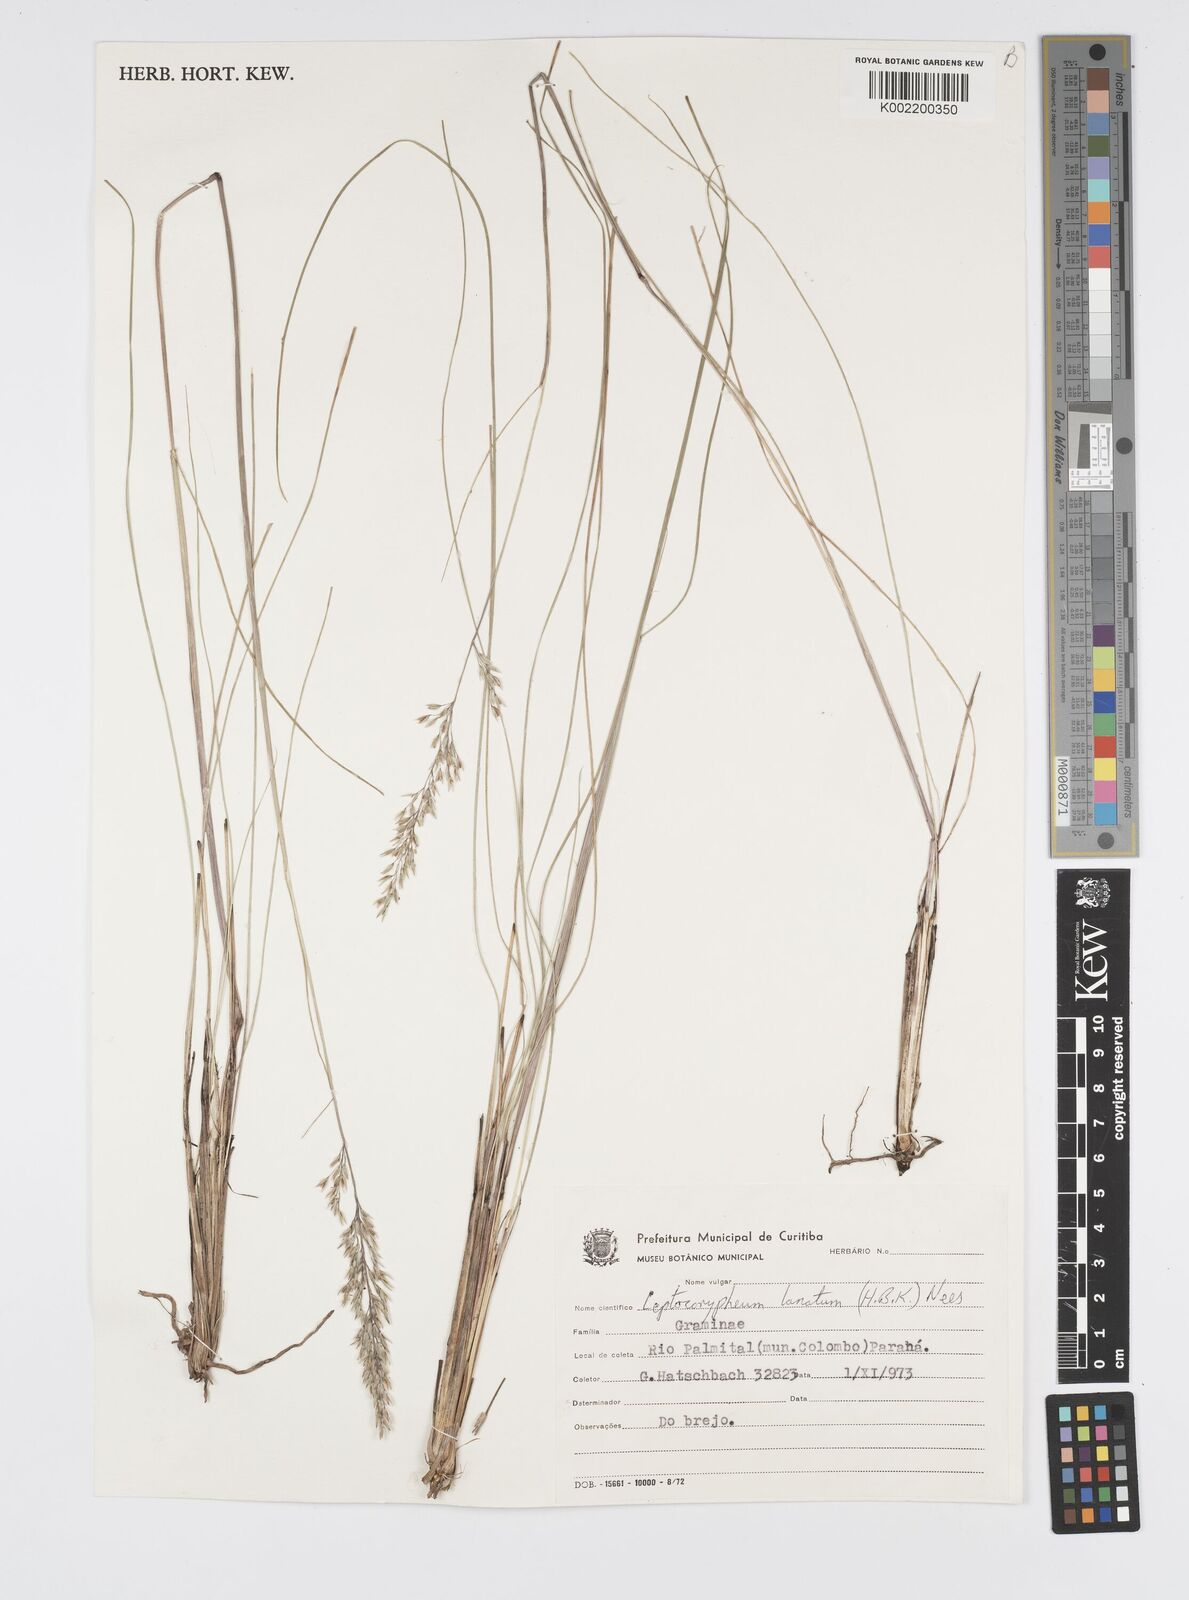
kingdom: Plantae
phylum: Tracheophyta
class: Liliopsida
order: Poales
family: Poaceae
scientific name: Poaceae
